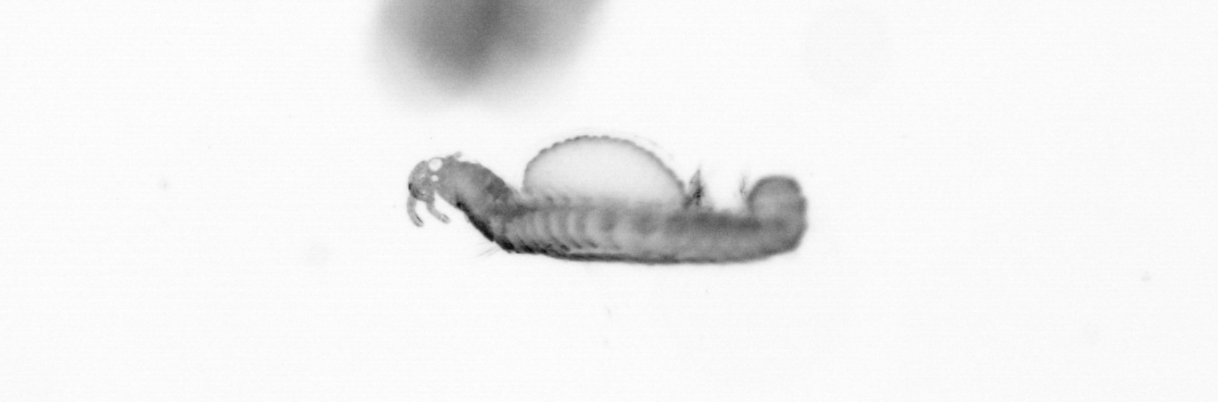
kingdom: Animalia
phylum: Annelida
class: Polychaeta
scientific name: Polychaeta
